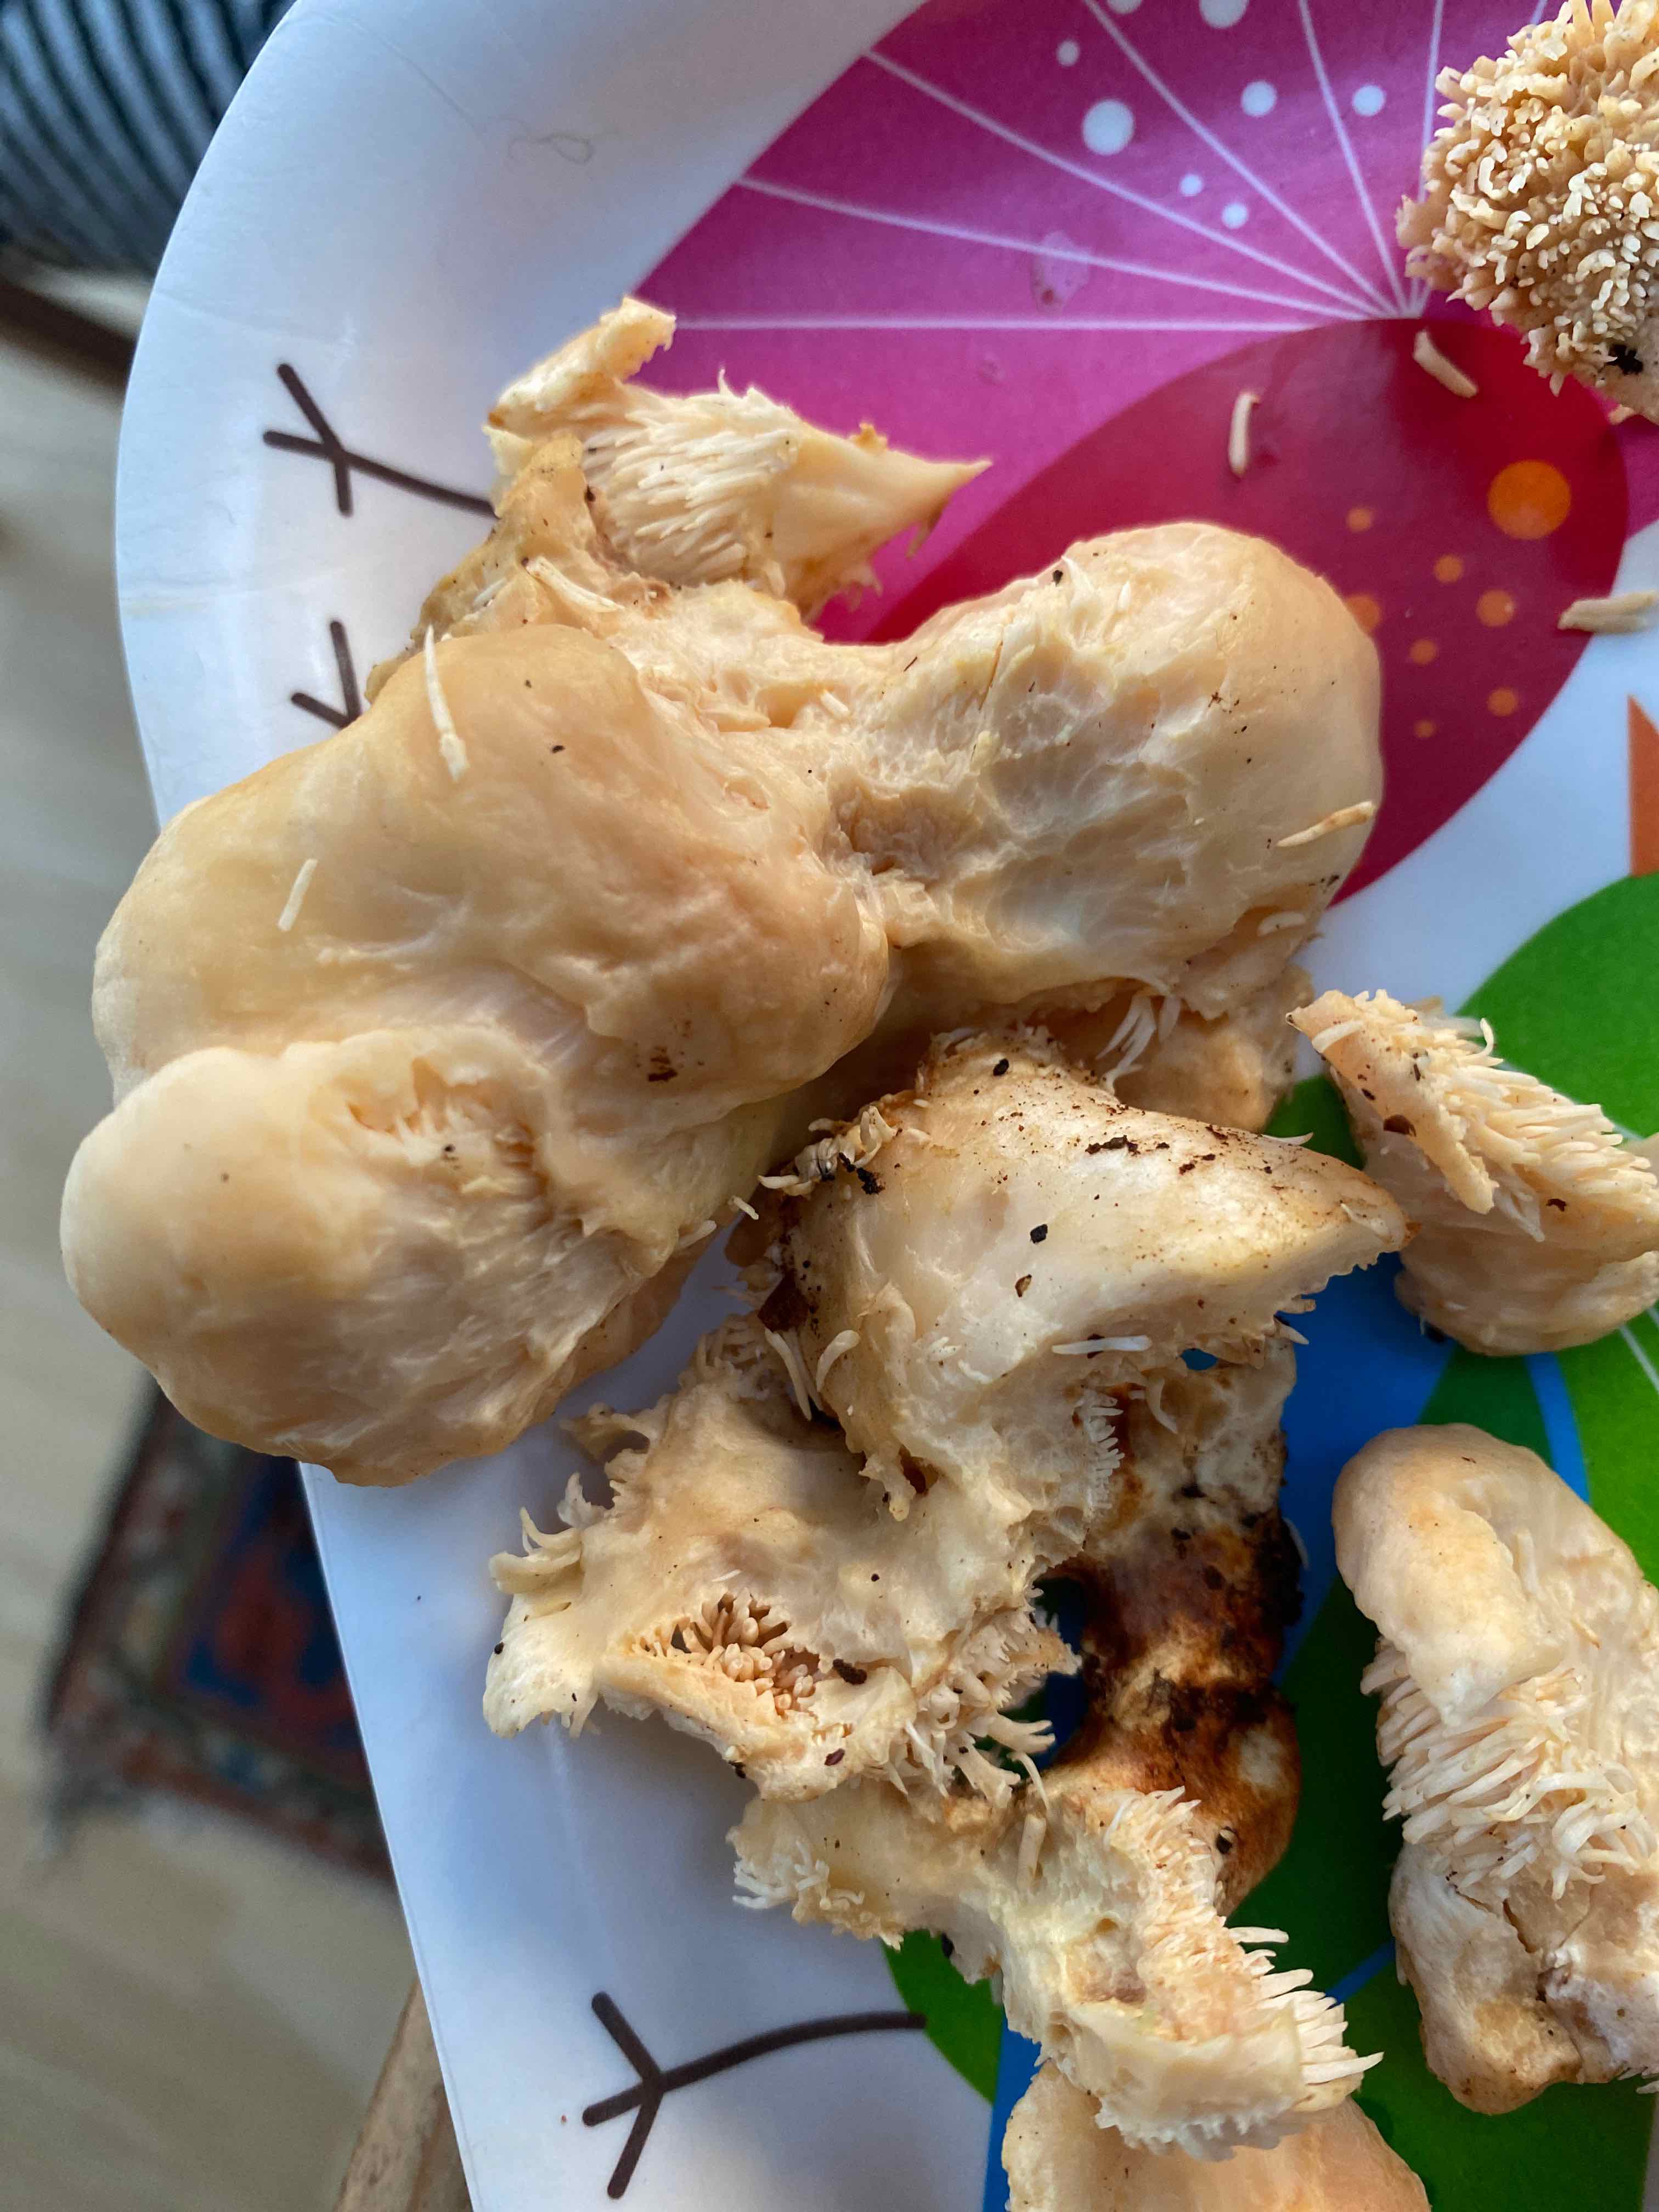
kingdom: Fungi
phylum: Basidiomycota
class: Agaricomycetes
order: Cantharellales
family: Hydnaceae
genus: Hydnum
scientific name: Hydnum
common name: pigsvamp
